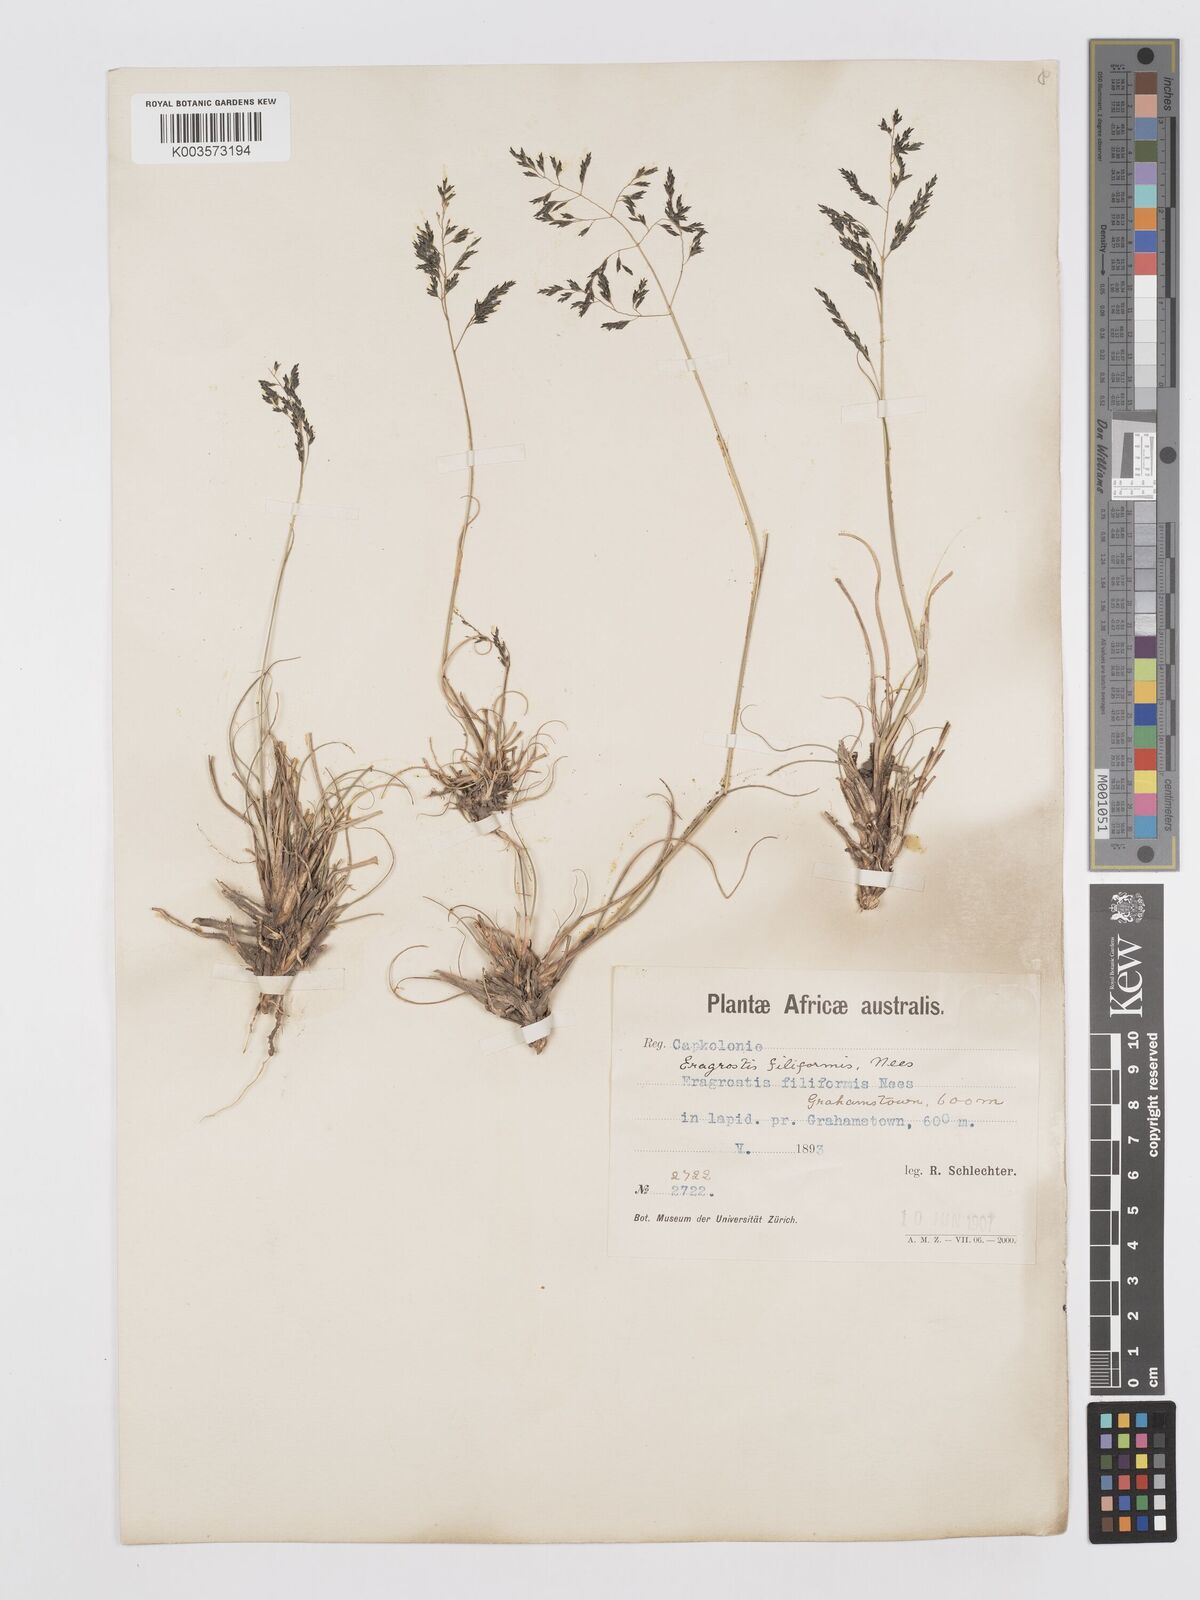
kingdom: Plantae
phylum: Tracheophyta
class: Liliopsida
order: Poales
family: Poaceae
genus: Eragrostis
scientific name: Eragrostis curvula
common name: African love-grass
